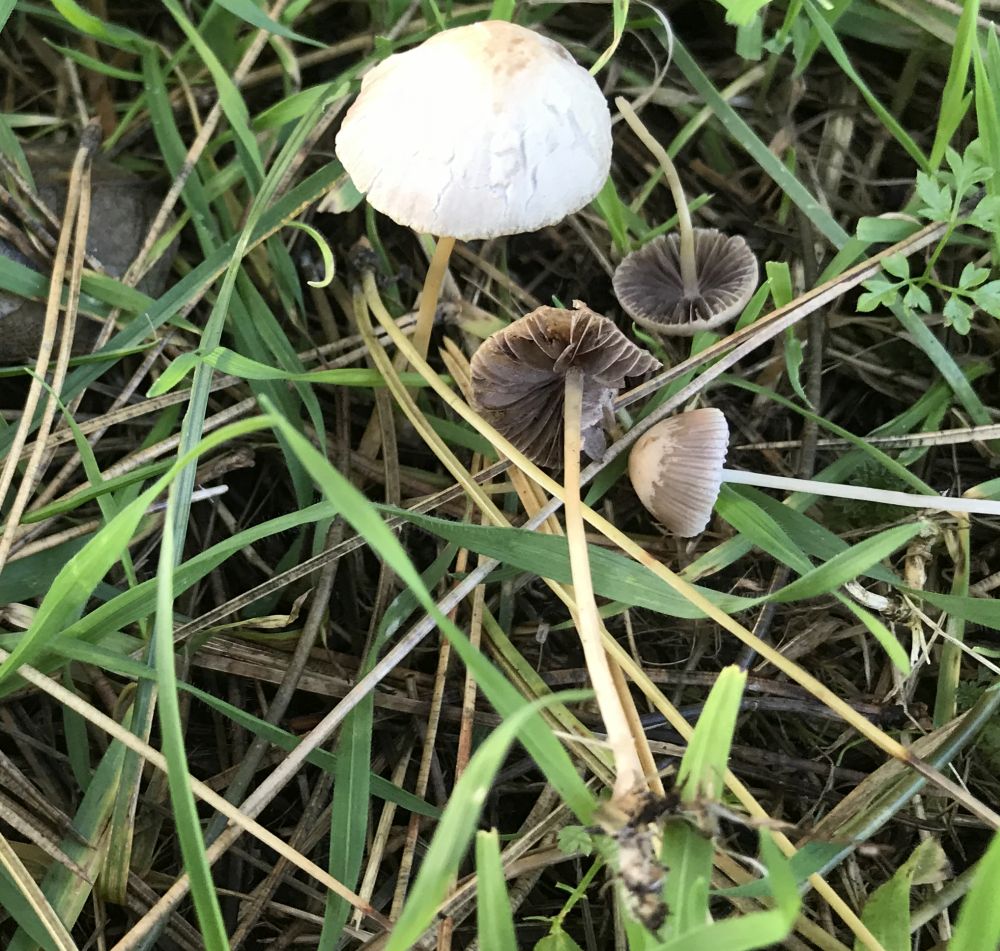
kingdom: Fungi
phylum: Basidiomycota
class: Agaricomycetes
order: Agaricales
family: Psathyrellaceae
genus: Psathyrella
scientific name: Psathyrella
